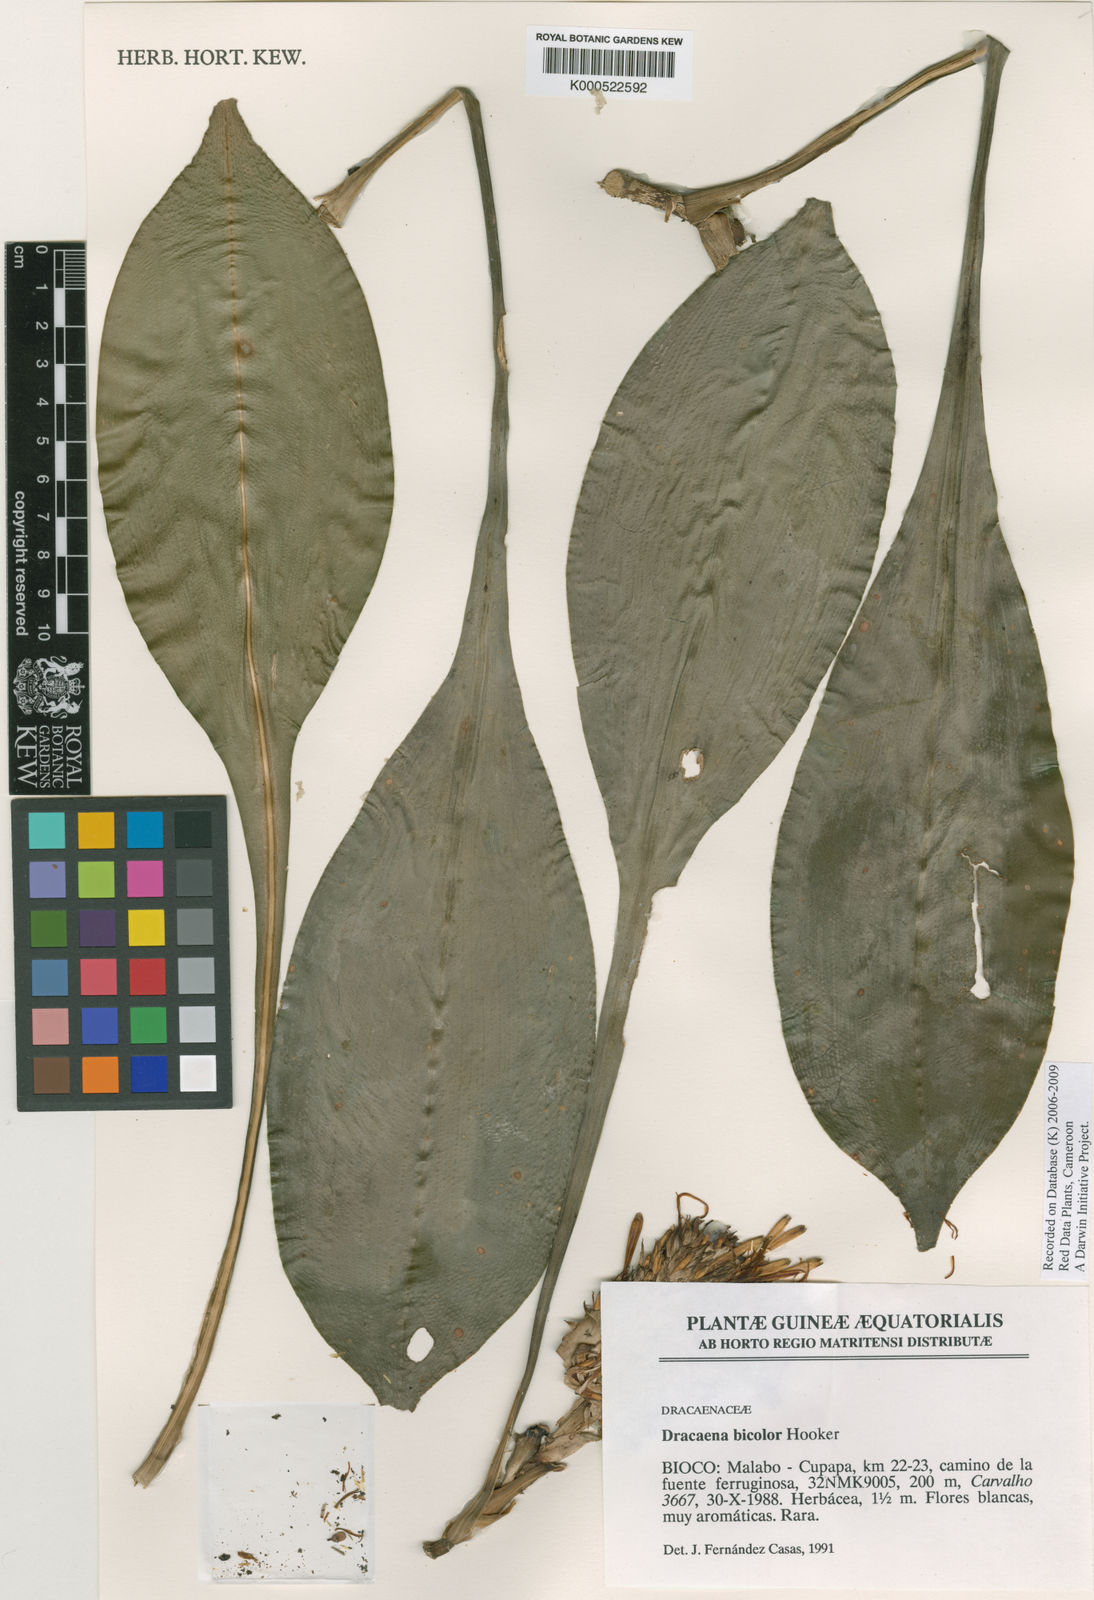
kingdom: Plantae
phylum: Tracheophyta
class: Liliopsida
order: Asparagales
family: Asparagaceae
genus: Dracaena
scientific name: Dracaena bicolor
